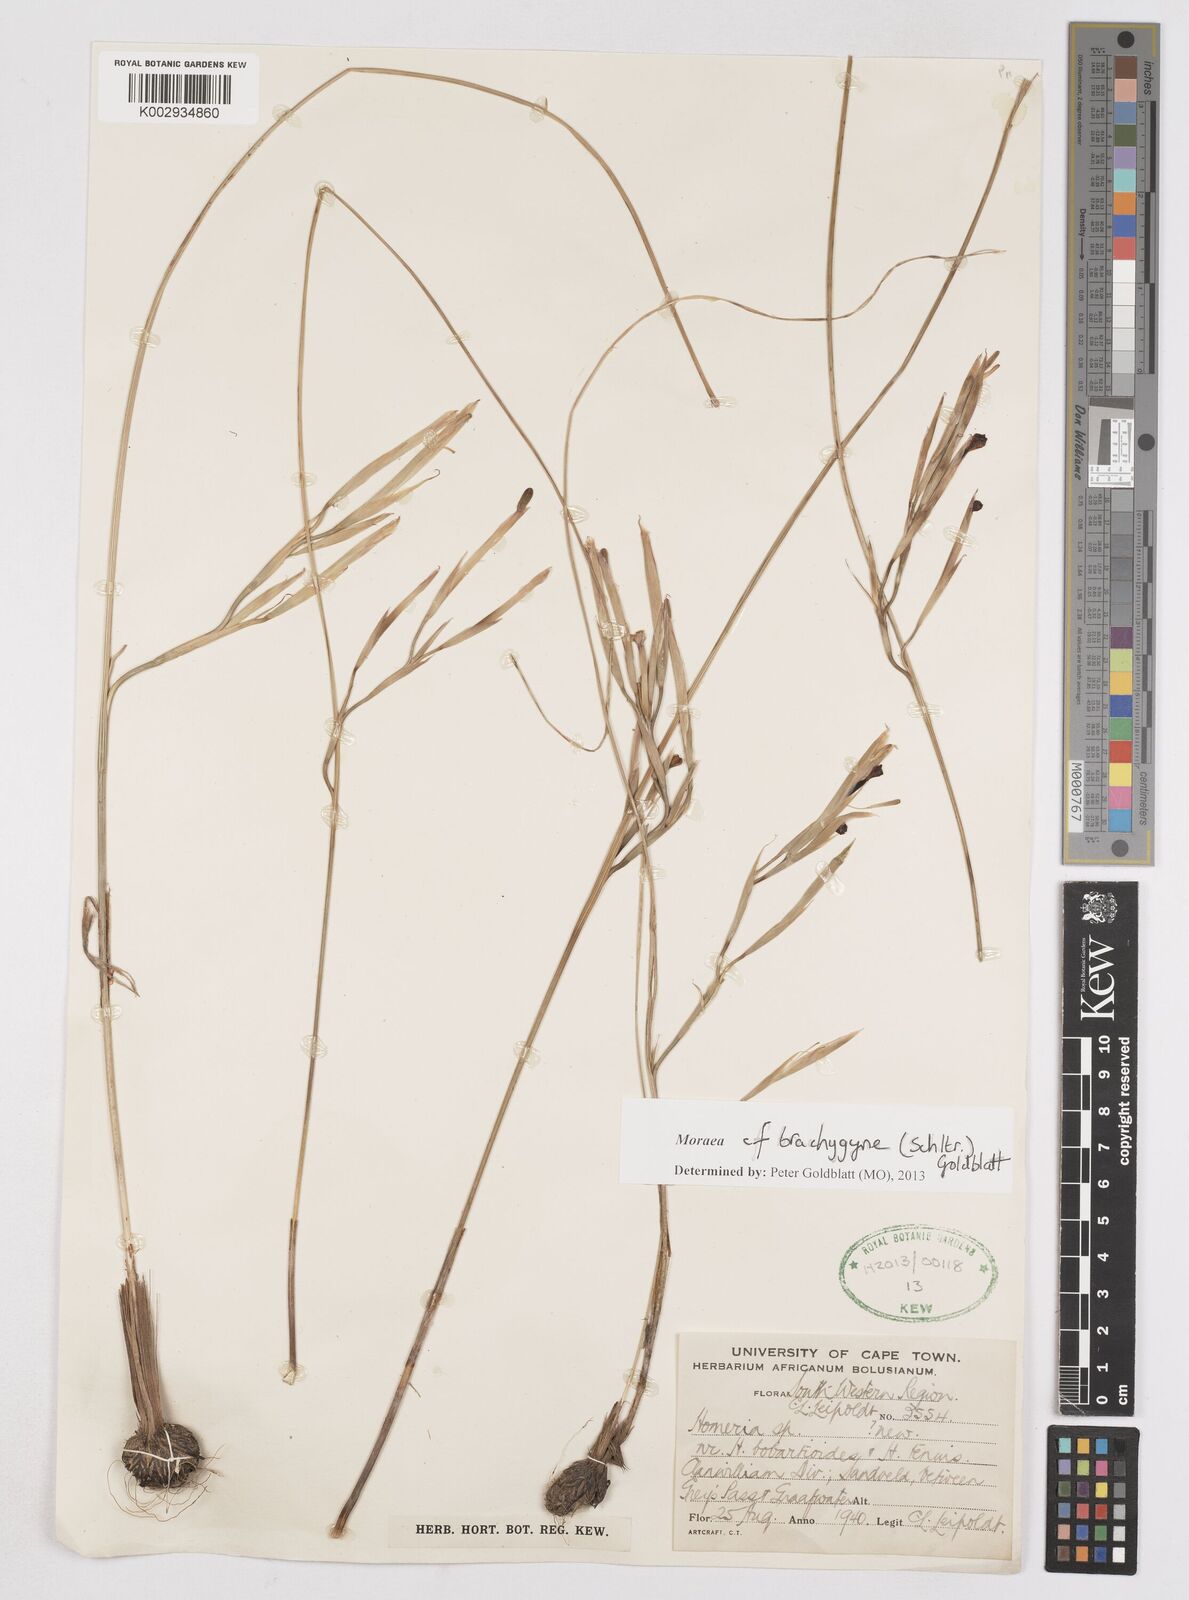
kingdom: Plantae
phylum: Tracheophyta
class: Liliopsida
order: Asparagales
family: Iridaceae
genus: Moraea
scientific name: Moraea brachygyne
